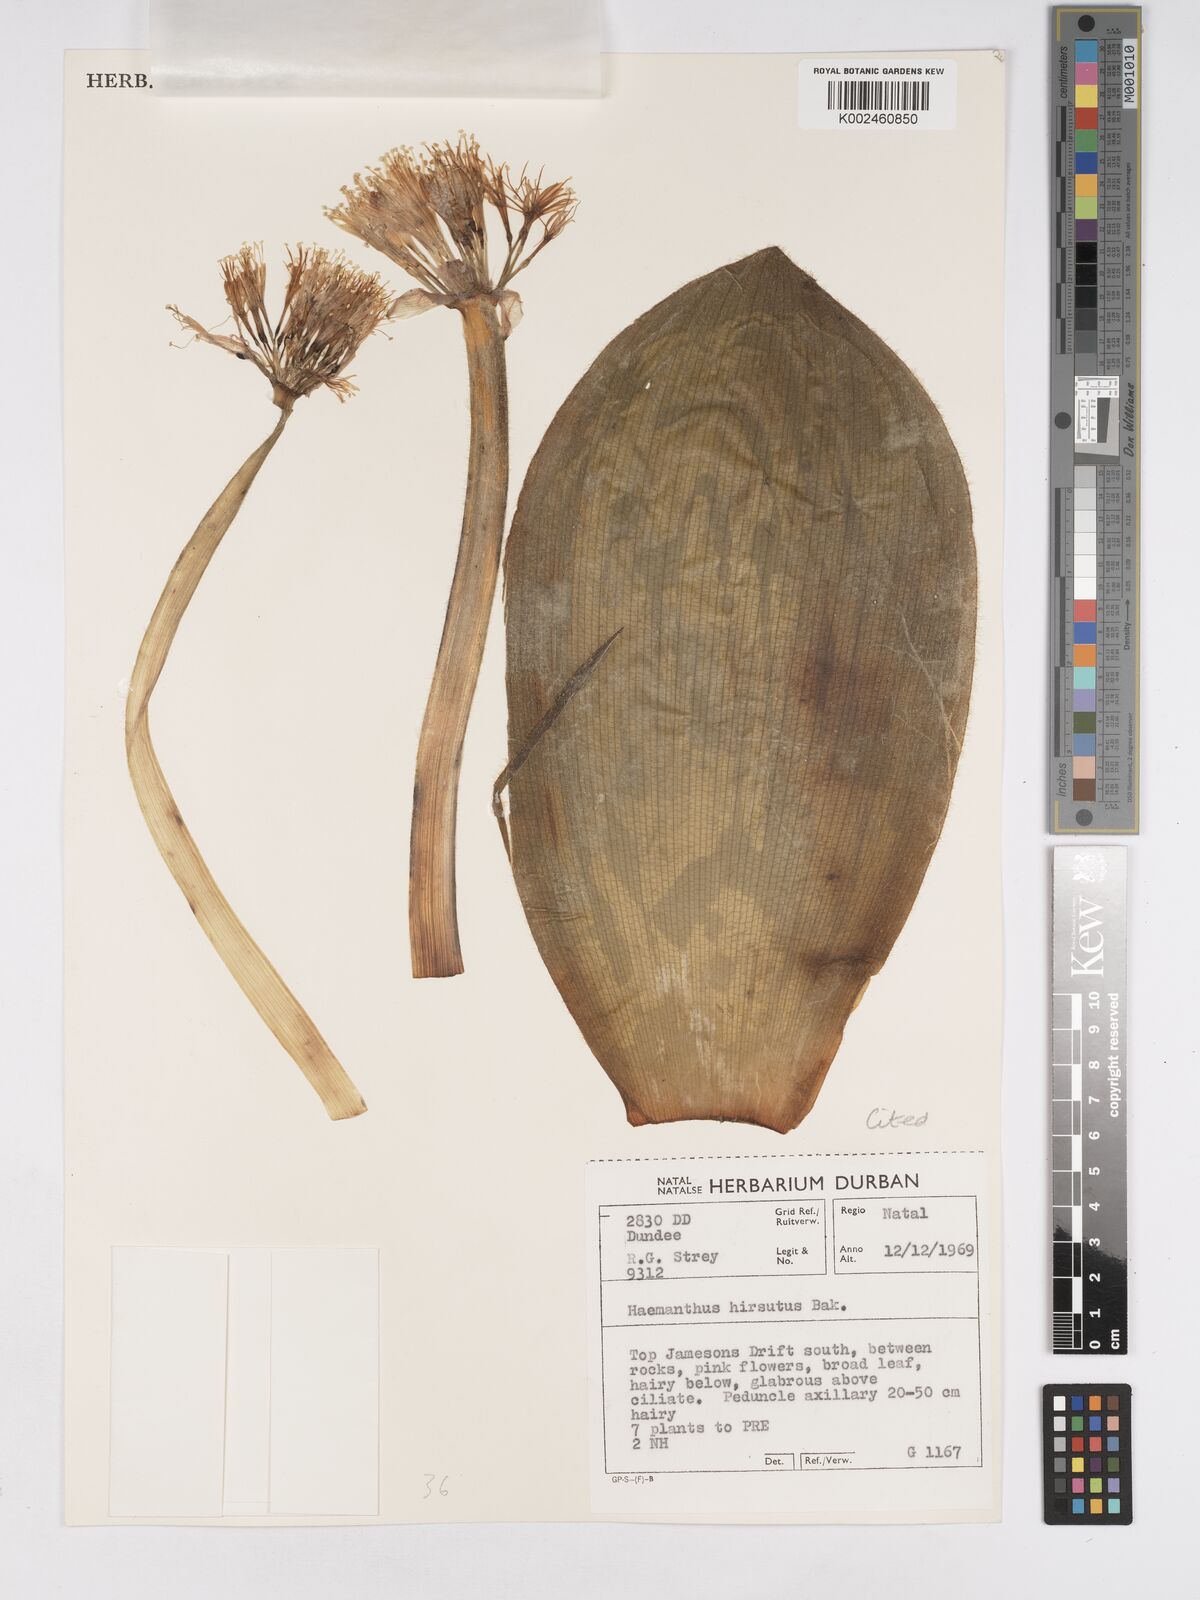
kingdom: Plantae
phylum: Tracheophyta
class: Liliopsida
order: Asparagales
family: Amaryllidaceae
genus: Haemanthus
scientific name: Haemanthus humilis
